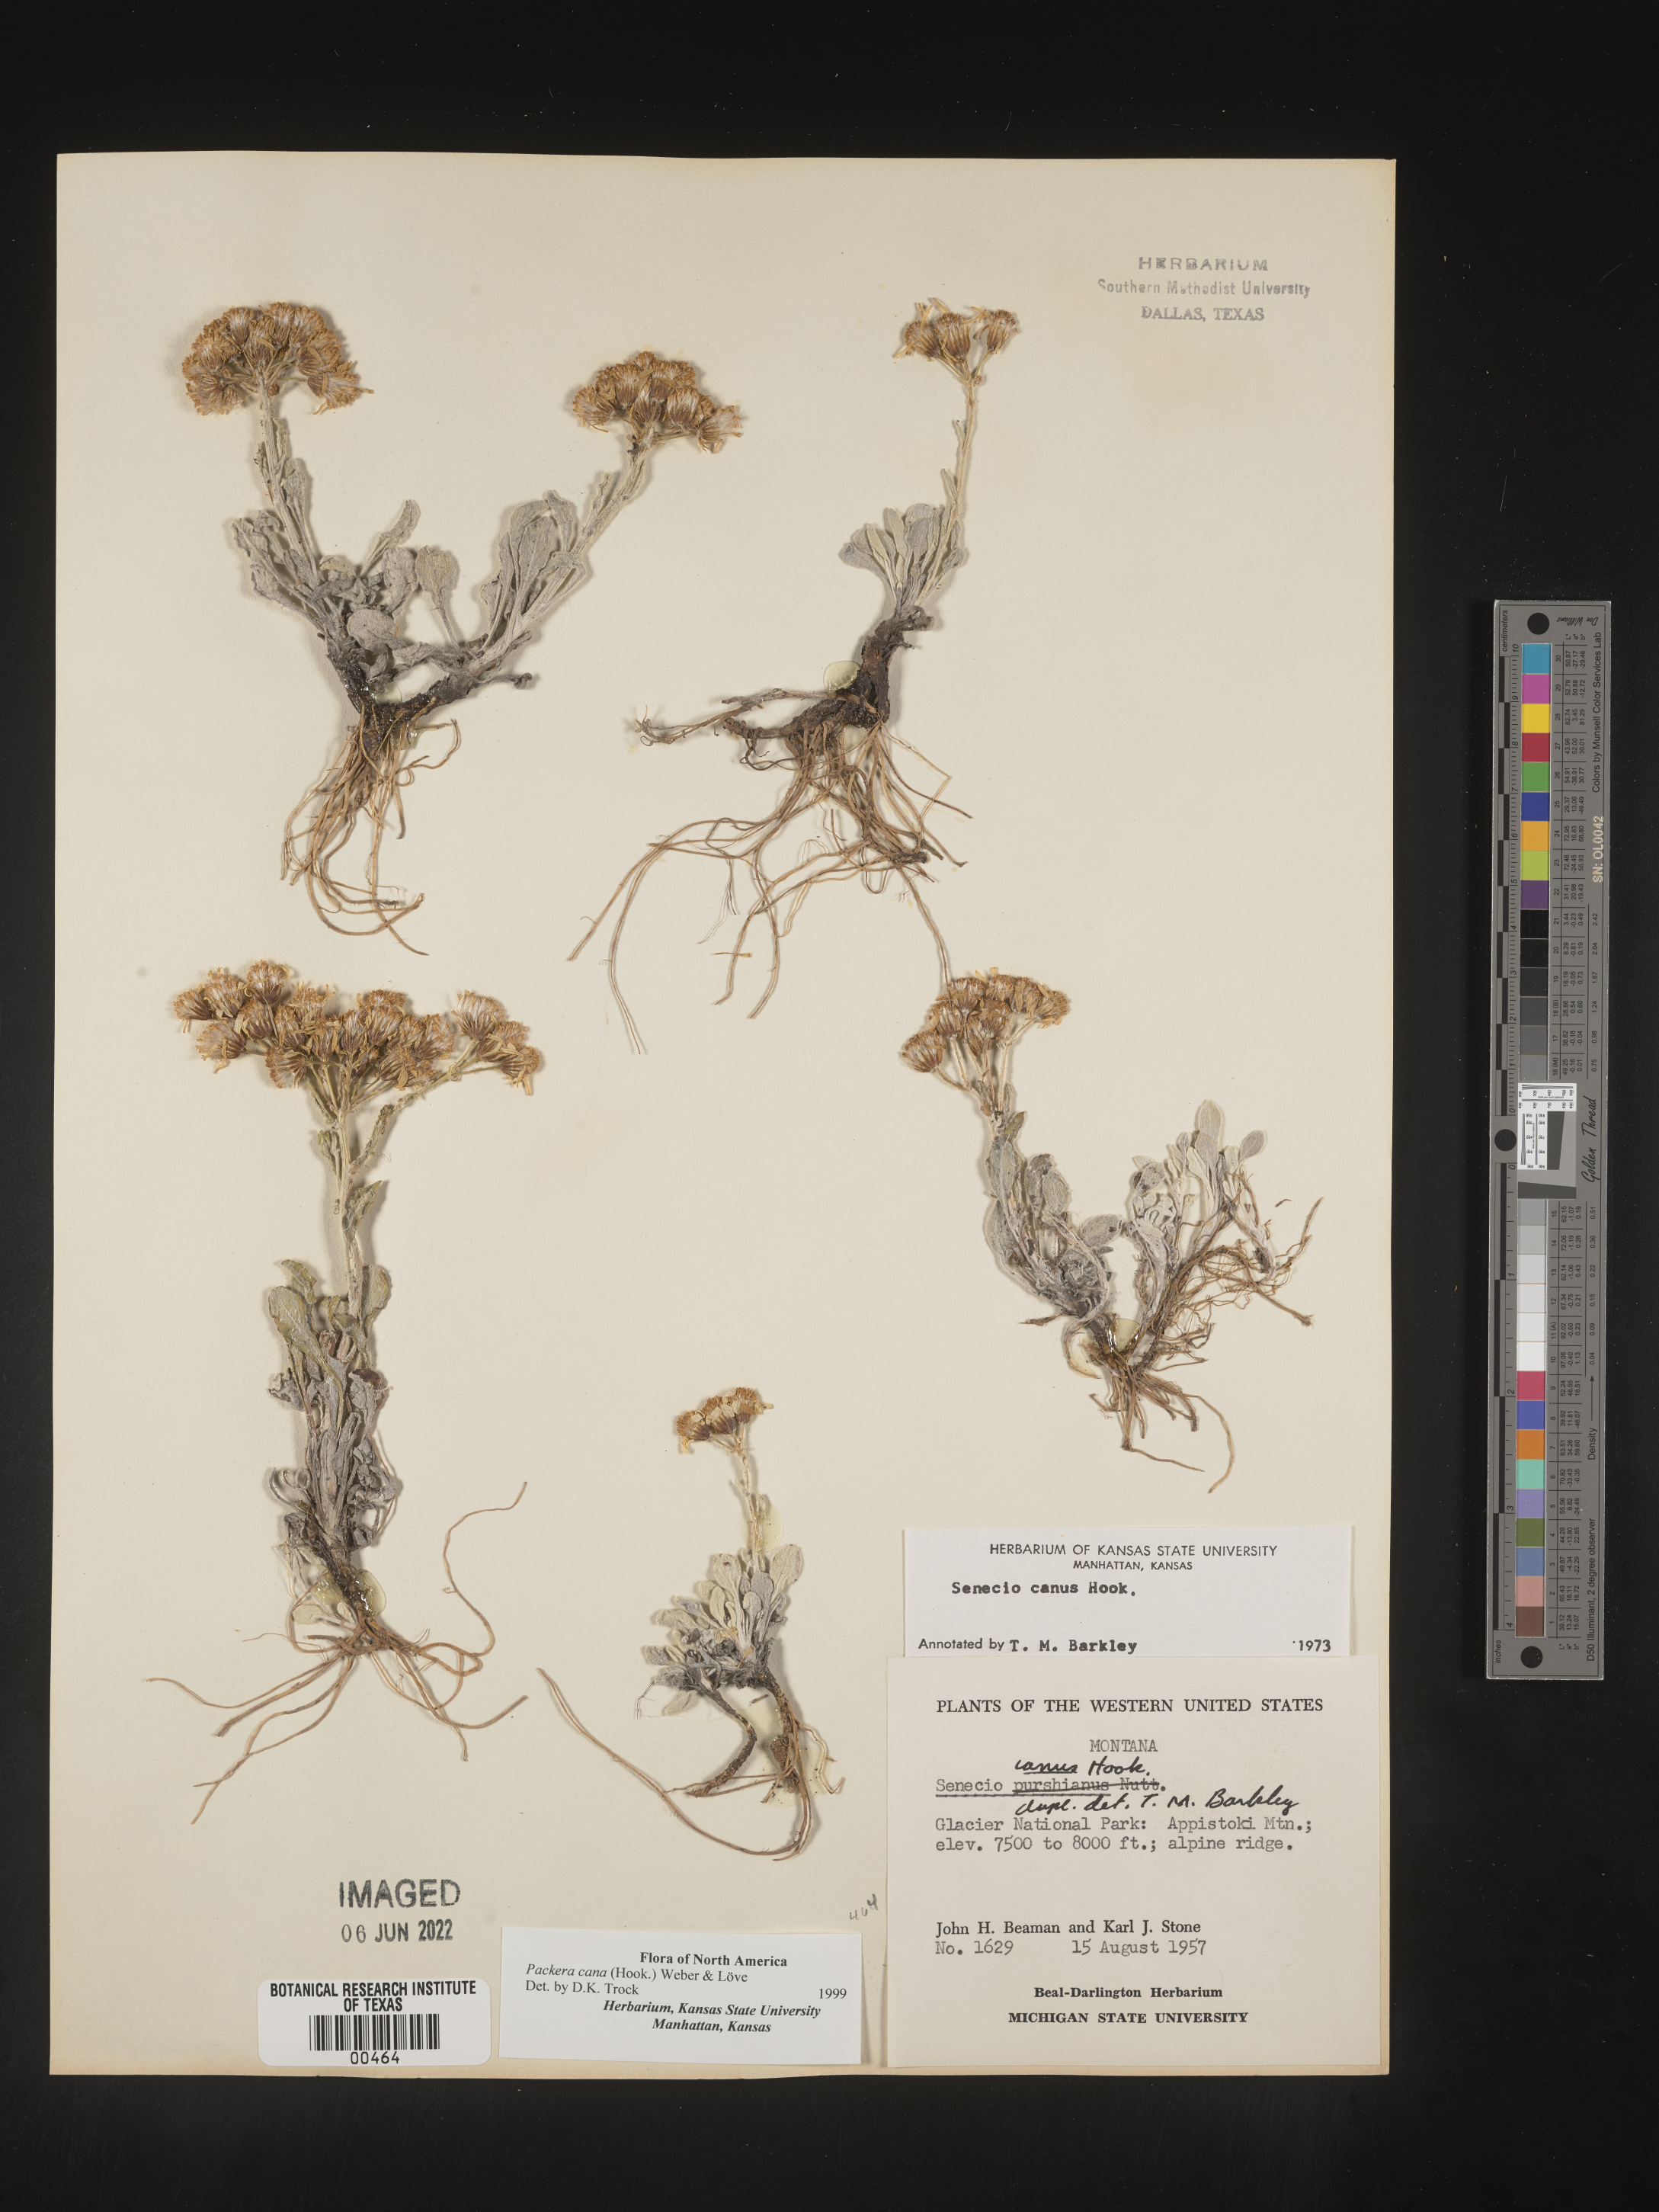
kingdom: Plantae
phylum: Tracheophyta
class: Magnoliopsida
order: Asterales
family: Asteraceae
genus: Packera
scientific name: Packera cana
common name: Woolly groundsel
